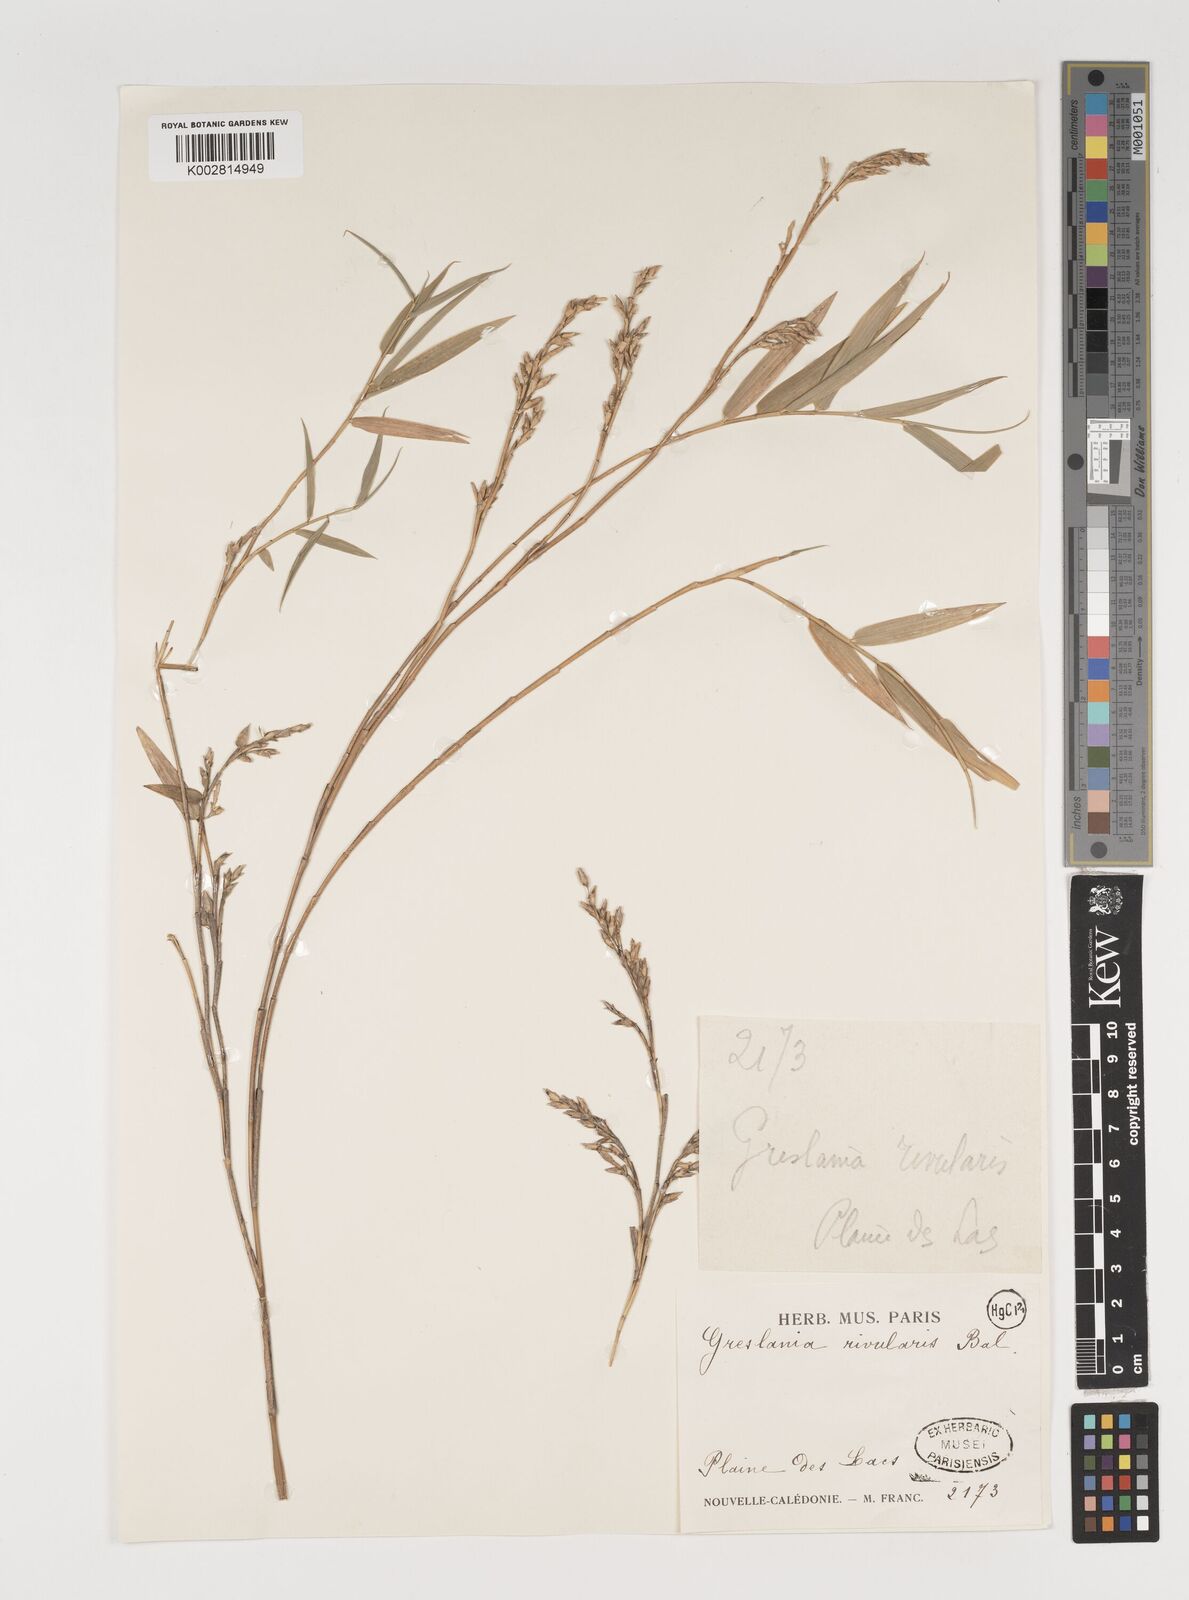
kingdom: Plantae
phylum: Tracheophyta
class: Liliopsida
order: Poales
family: Poaceae
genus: Greslania
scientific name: Greslania rivularis
